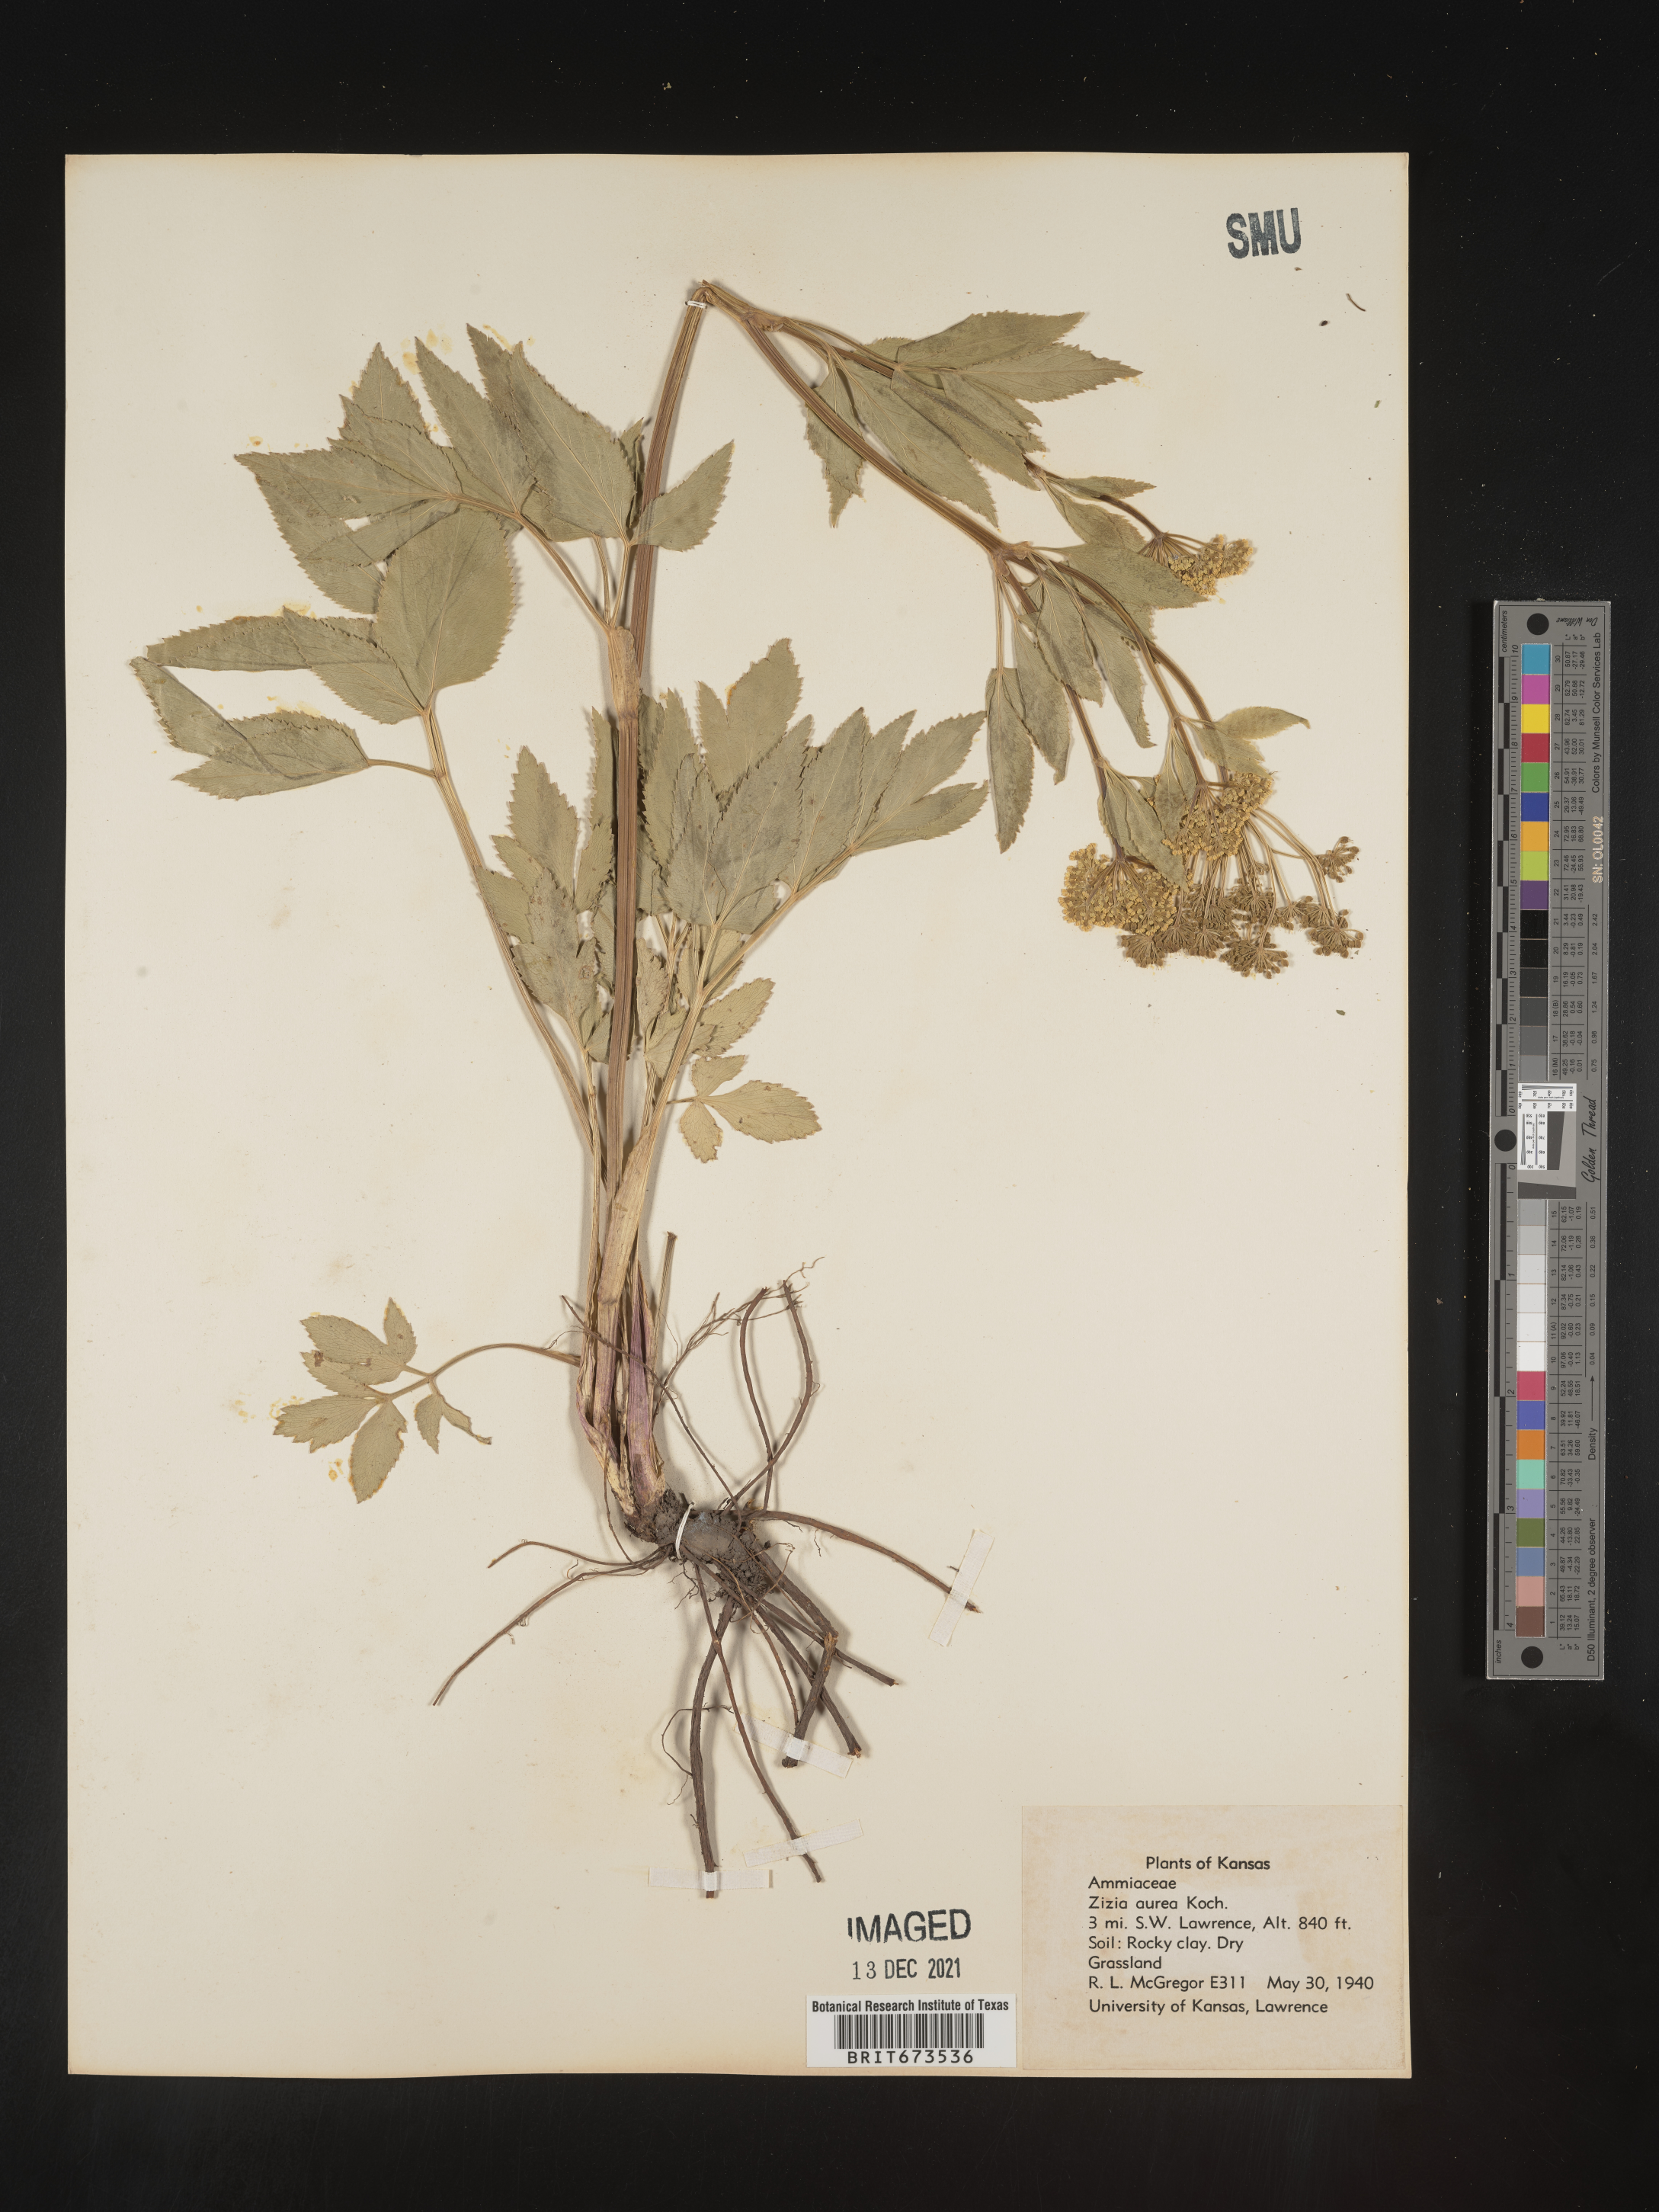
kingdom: Plantae
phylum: Tracheophyta
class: Magnoliopsida
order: Apiales
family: Apiaceae
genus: Zizia
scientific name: Zizia aurea
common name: Golden alexanders
